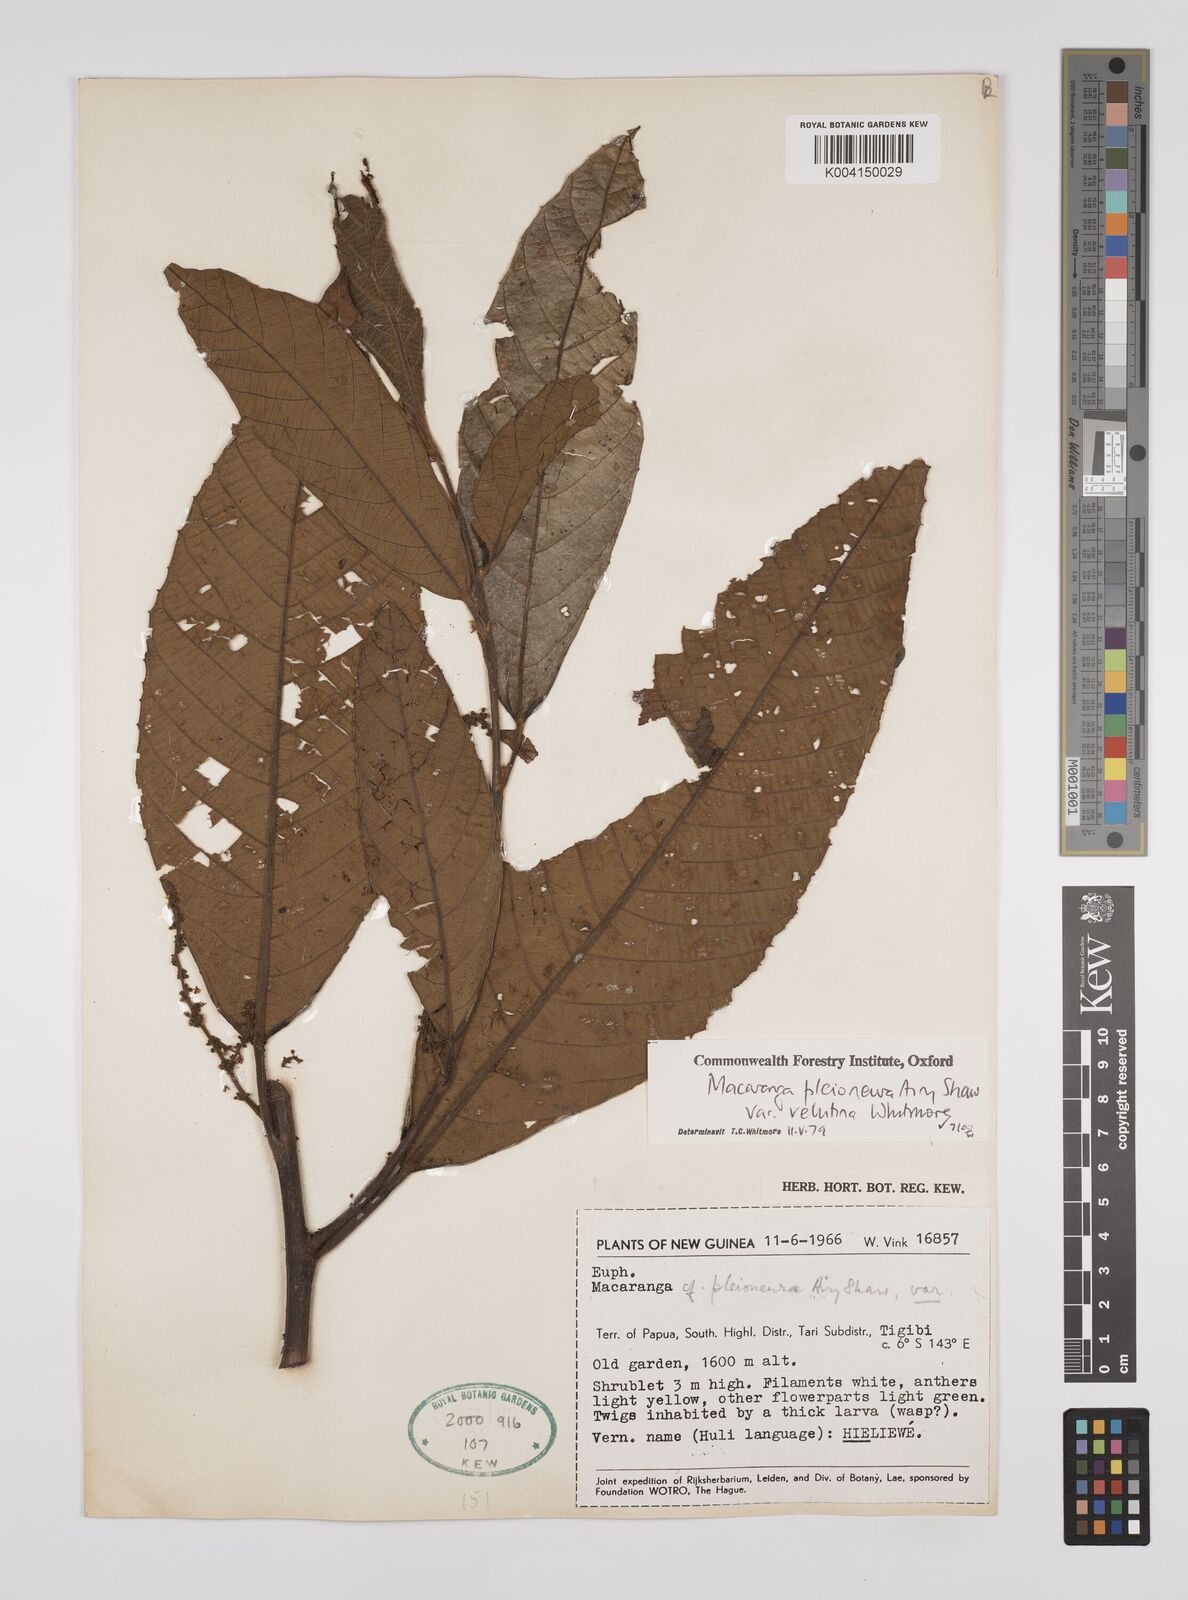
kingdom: Plantae
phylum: Tracheophyta
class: Magnoliopsida
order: Malpighiales
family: Euphorbiaceae
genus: Macaranga
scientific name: Macaranga pleioneura
